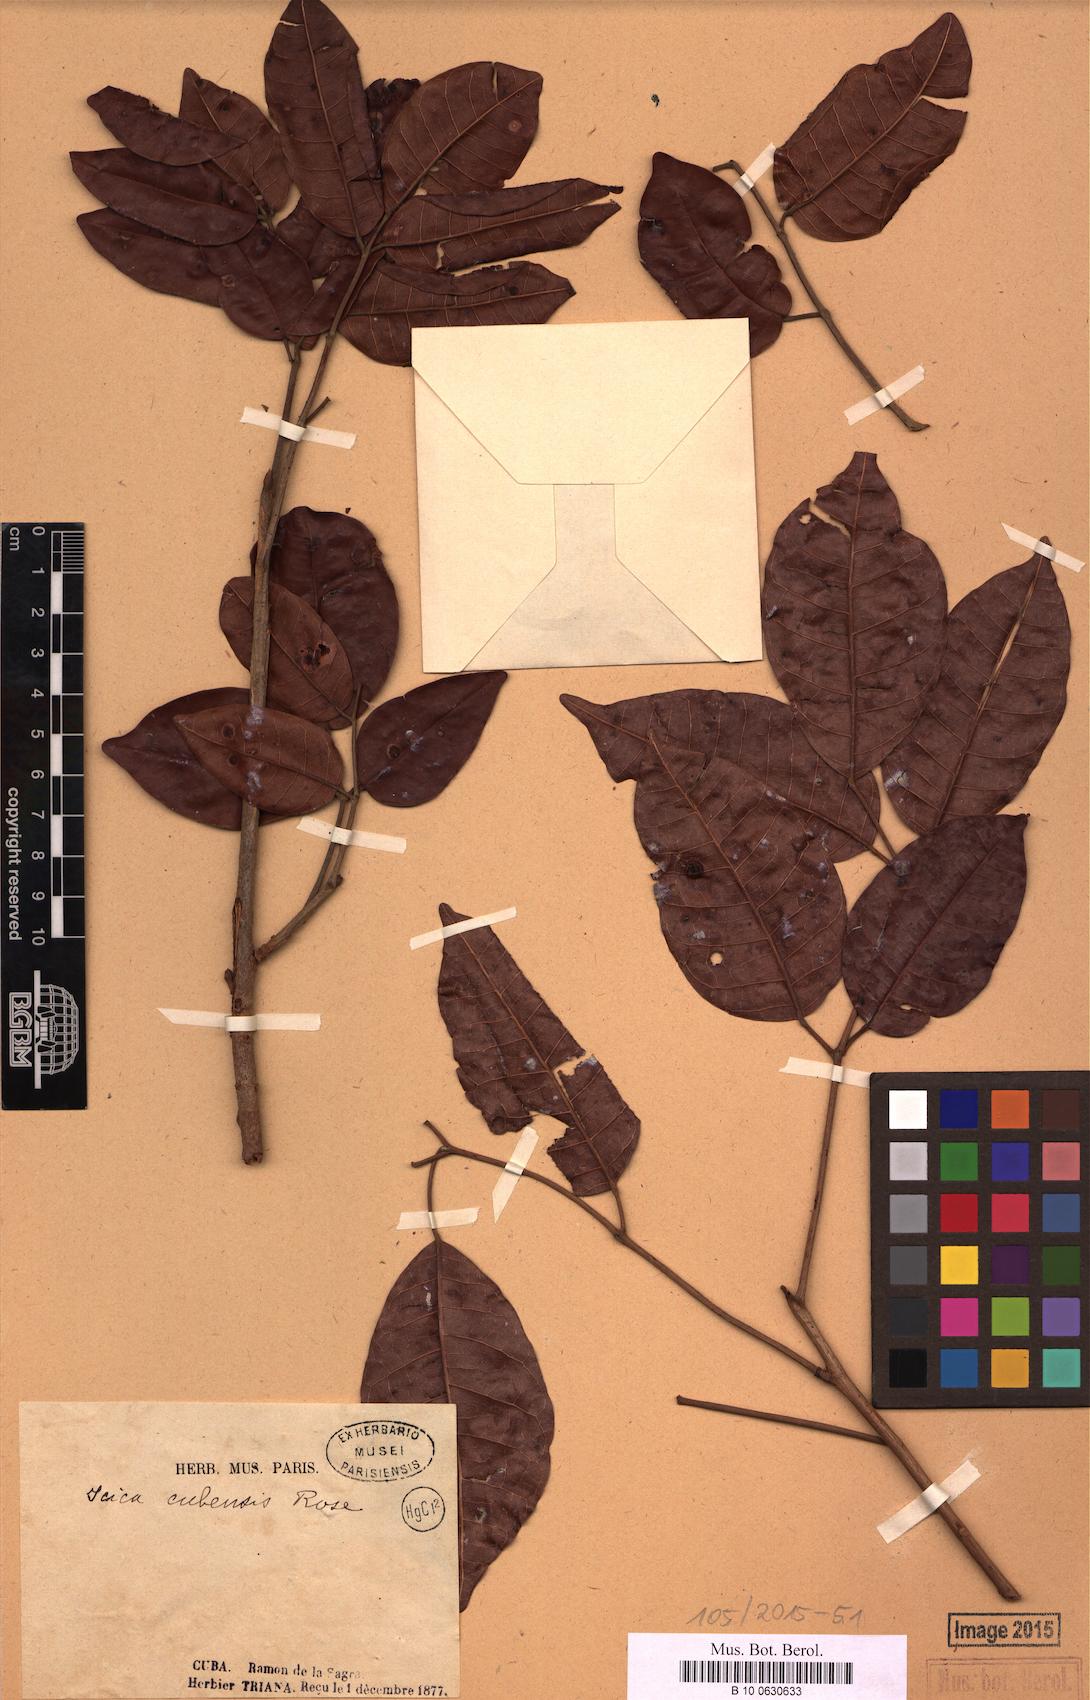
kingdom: Plantae
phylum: Tracheophyta
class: Magnoliopsida
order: Sapindales
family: Burseraceae
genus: Protium
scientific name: Protium cubense
